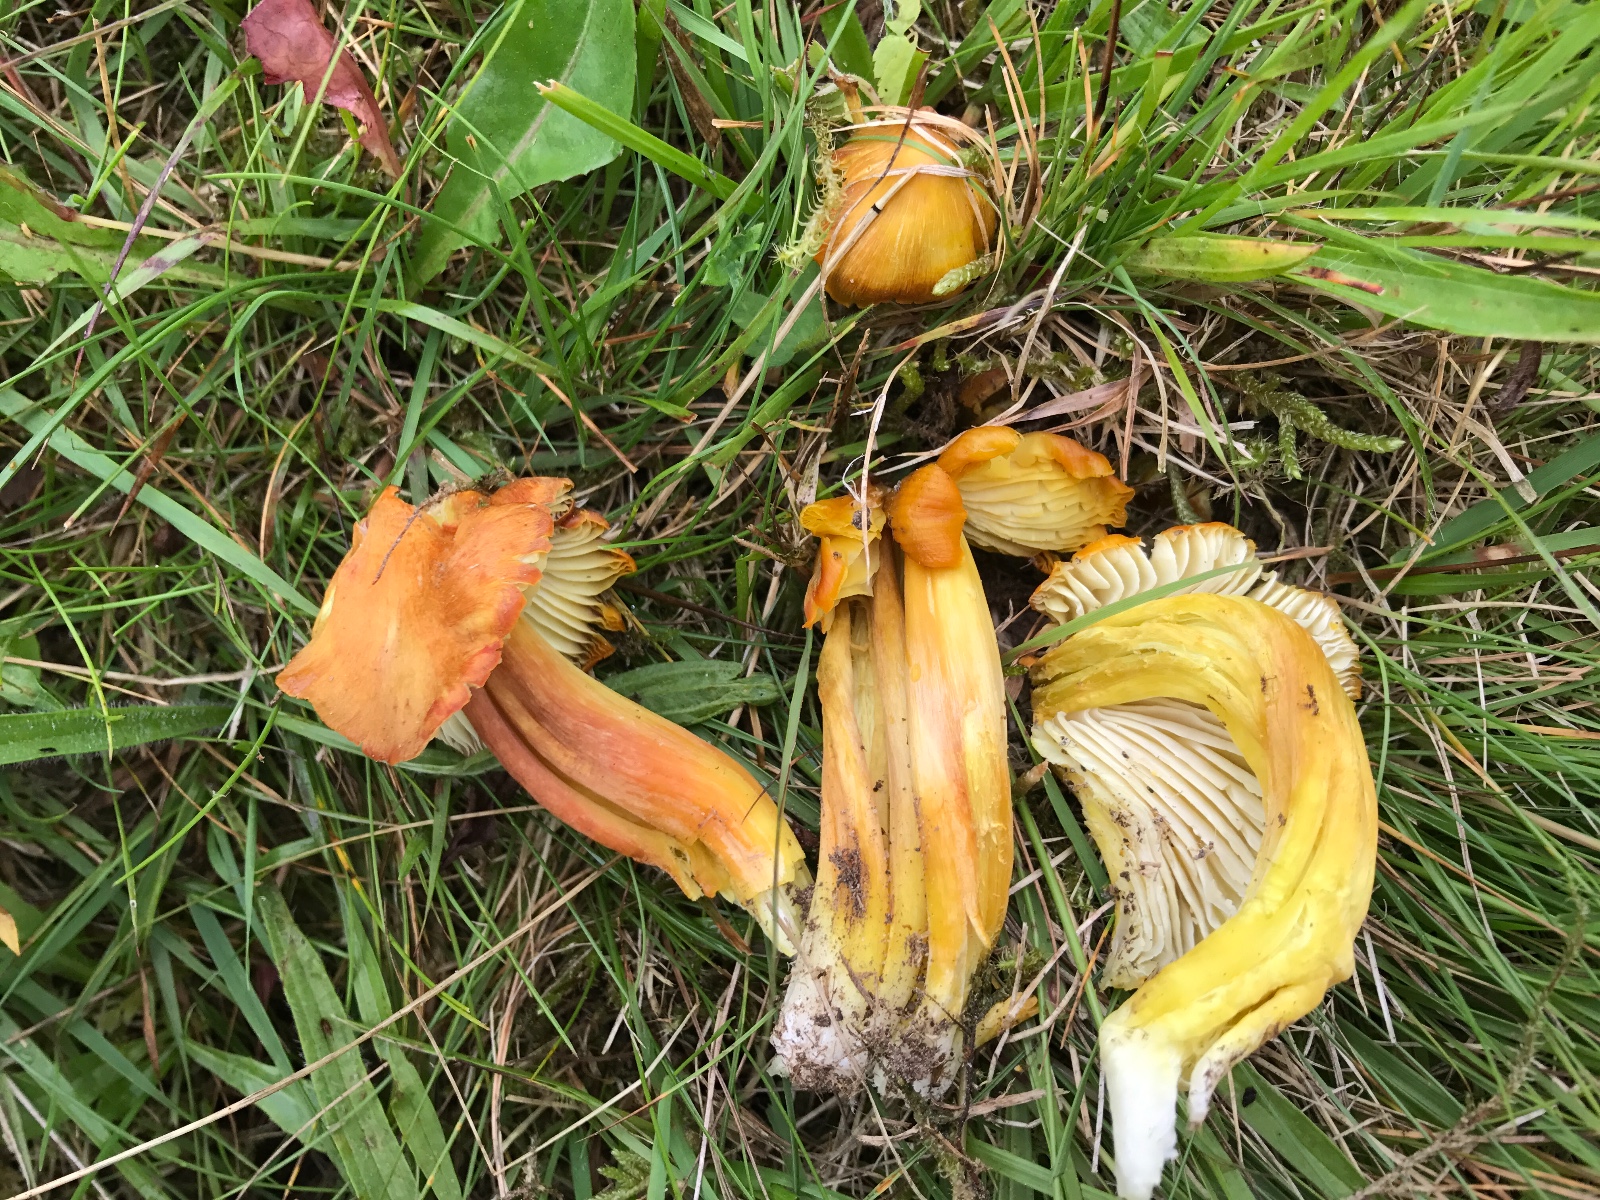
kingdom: Fungi
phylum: Basidiomycota
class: Agaricomycetes
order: Agaricales
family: Hygrophoraceae
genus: Hygrocybe
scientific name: Hygrocybe citrinovirens
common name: grøngul vokshat
